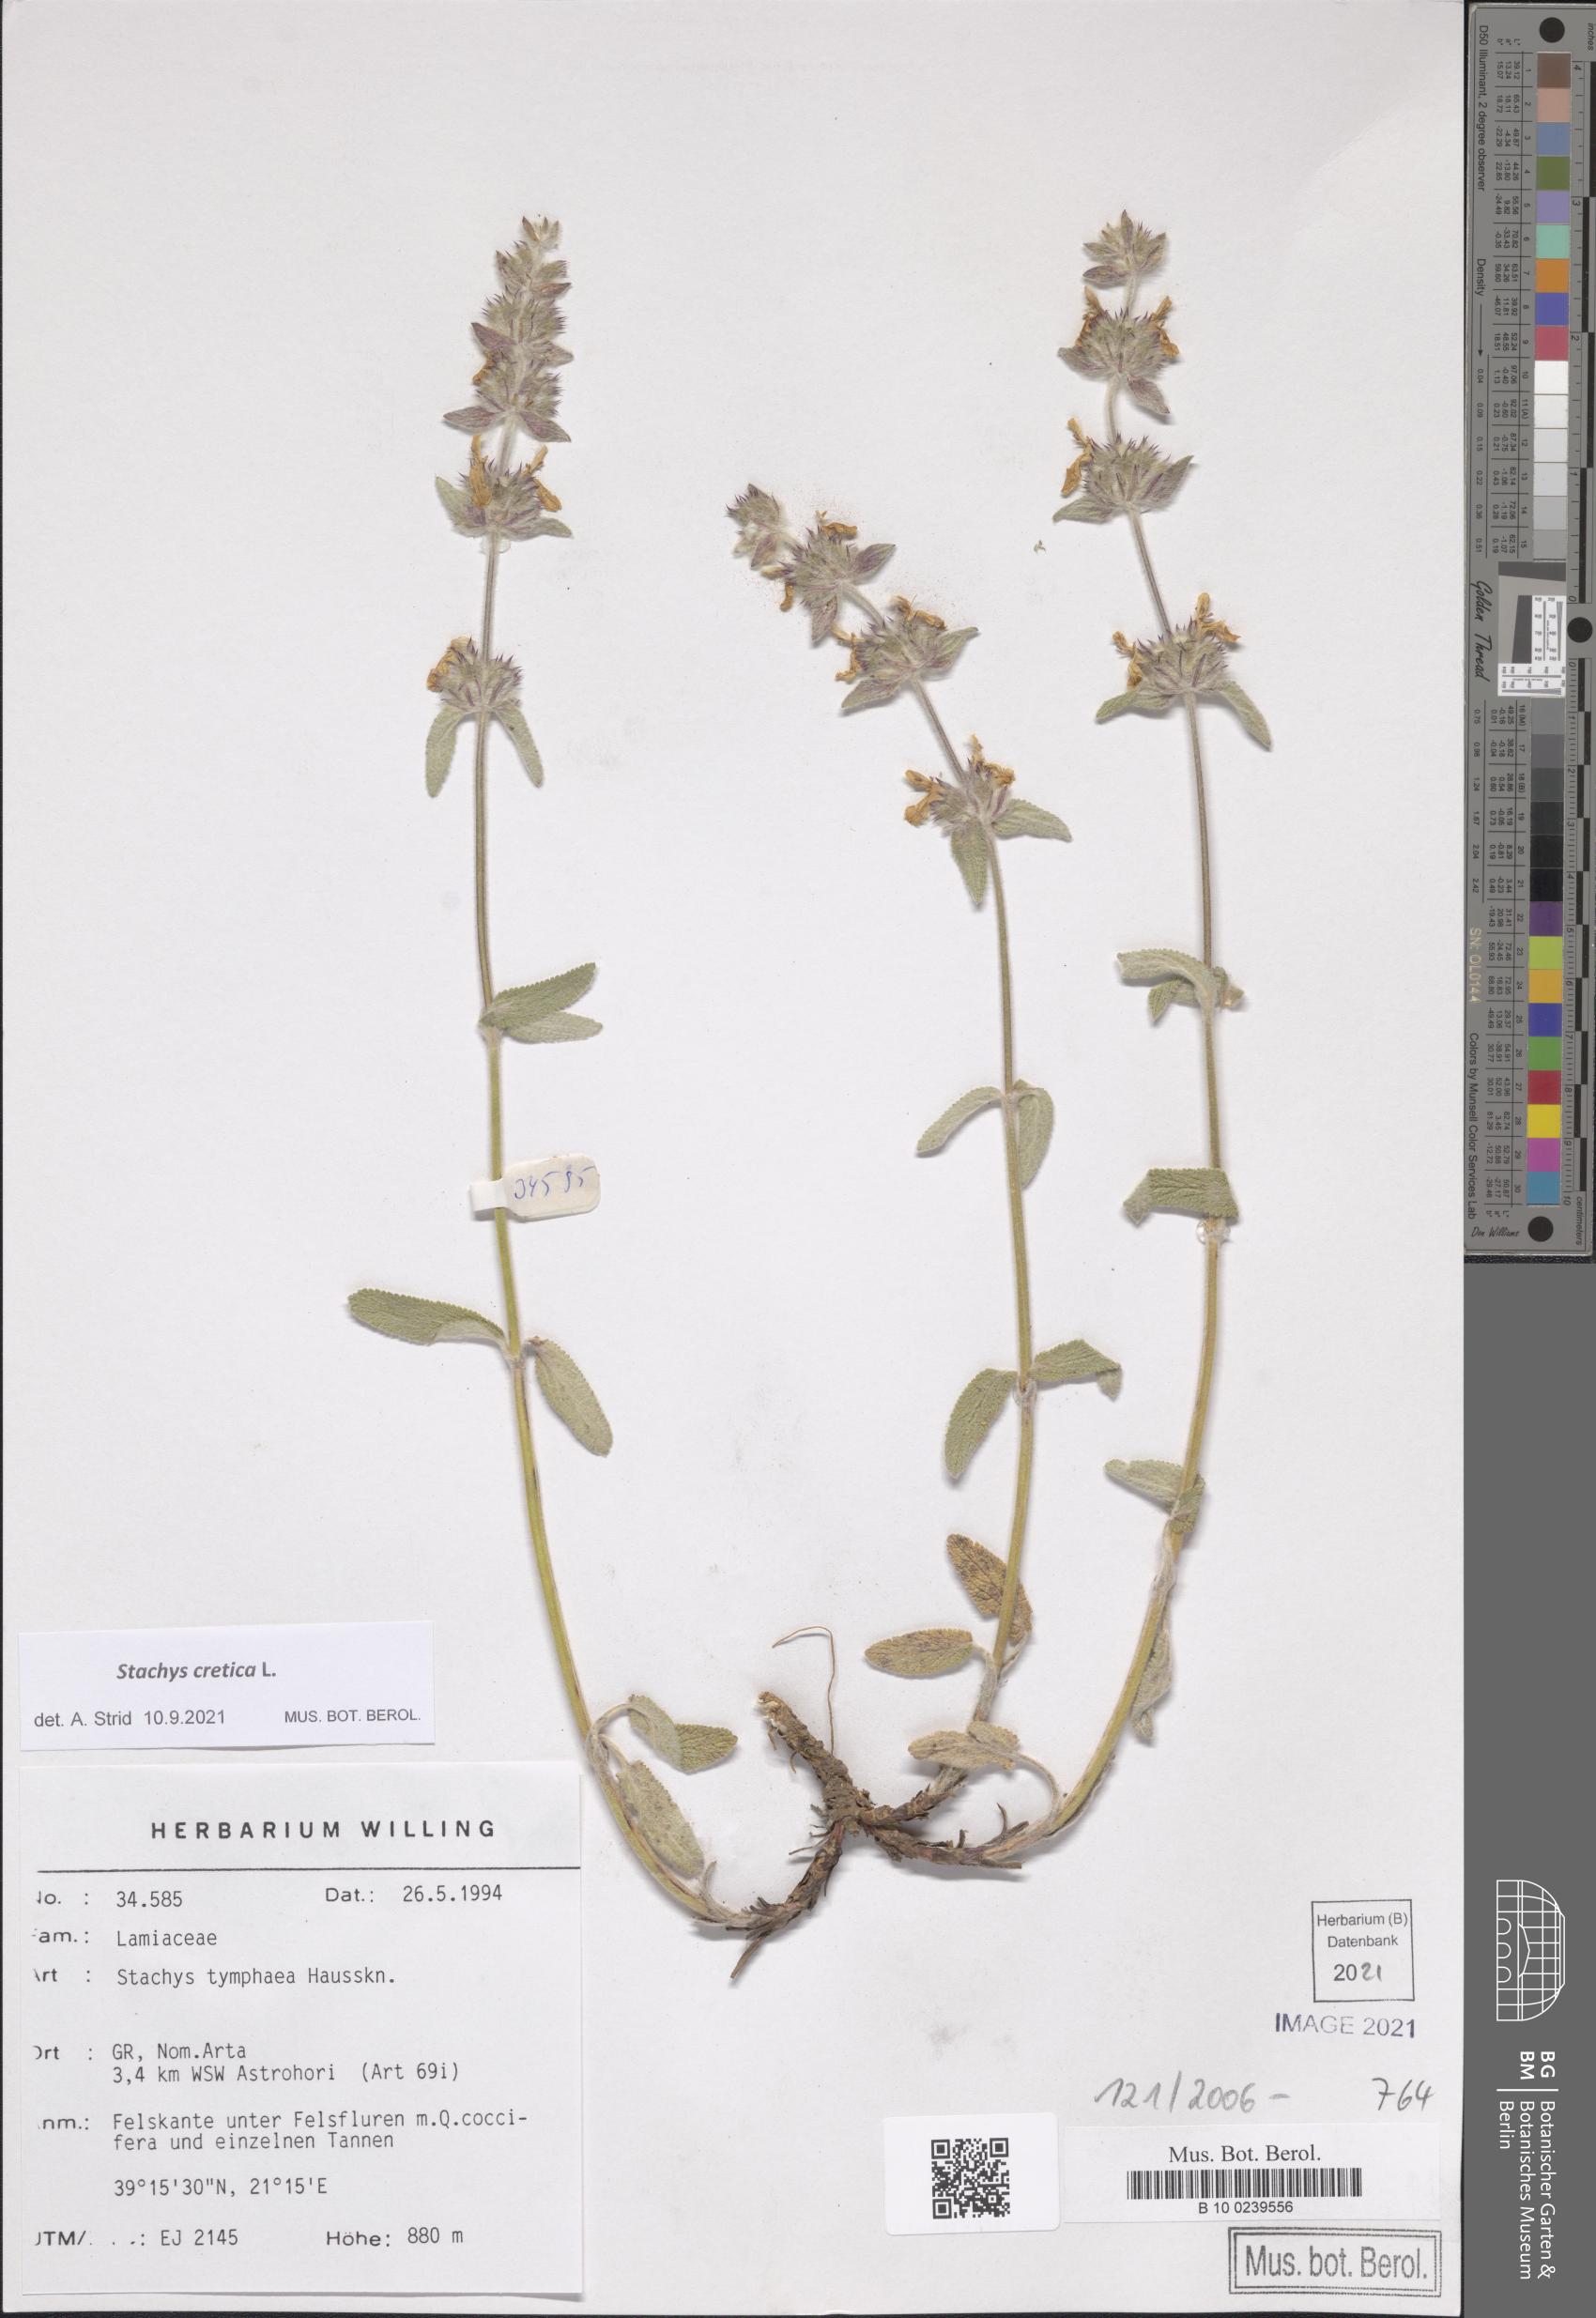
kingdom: Plantae
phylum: Tracheophyta
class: Magnoliopsida
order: Lamiales
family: Lamiaceae
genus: Stachys
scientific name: Stachys cretica
